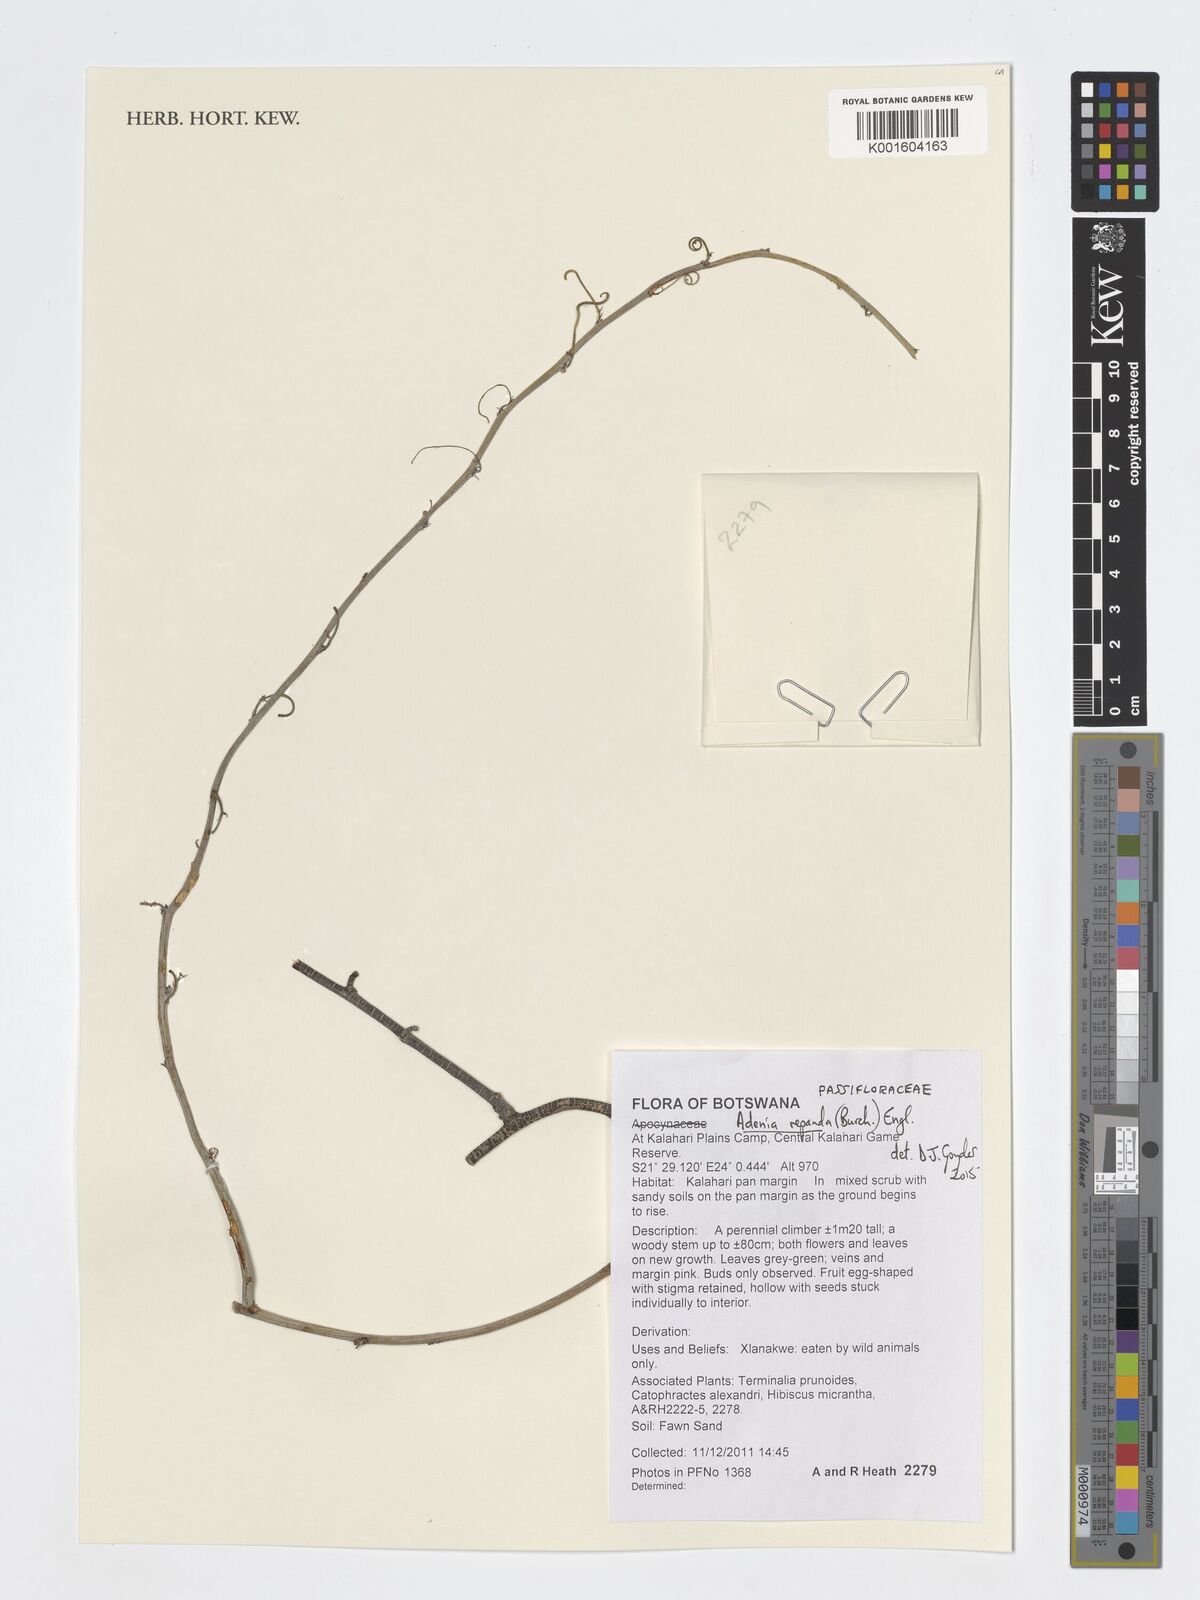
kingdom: Plantae
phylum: Tracheophyta
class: Magnoliopsida
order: Malpighiales
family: Passifloraceae
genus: Adenia
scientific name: Adenia repanda
